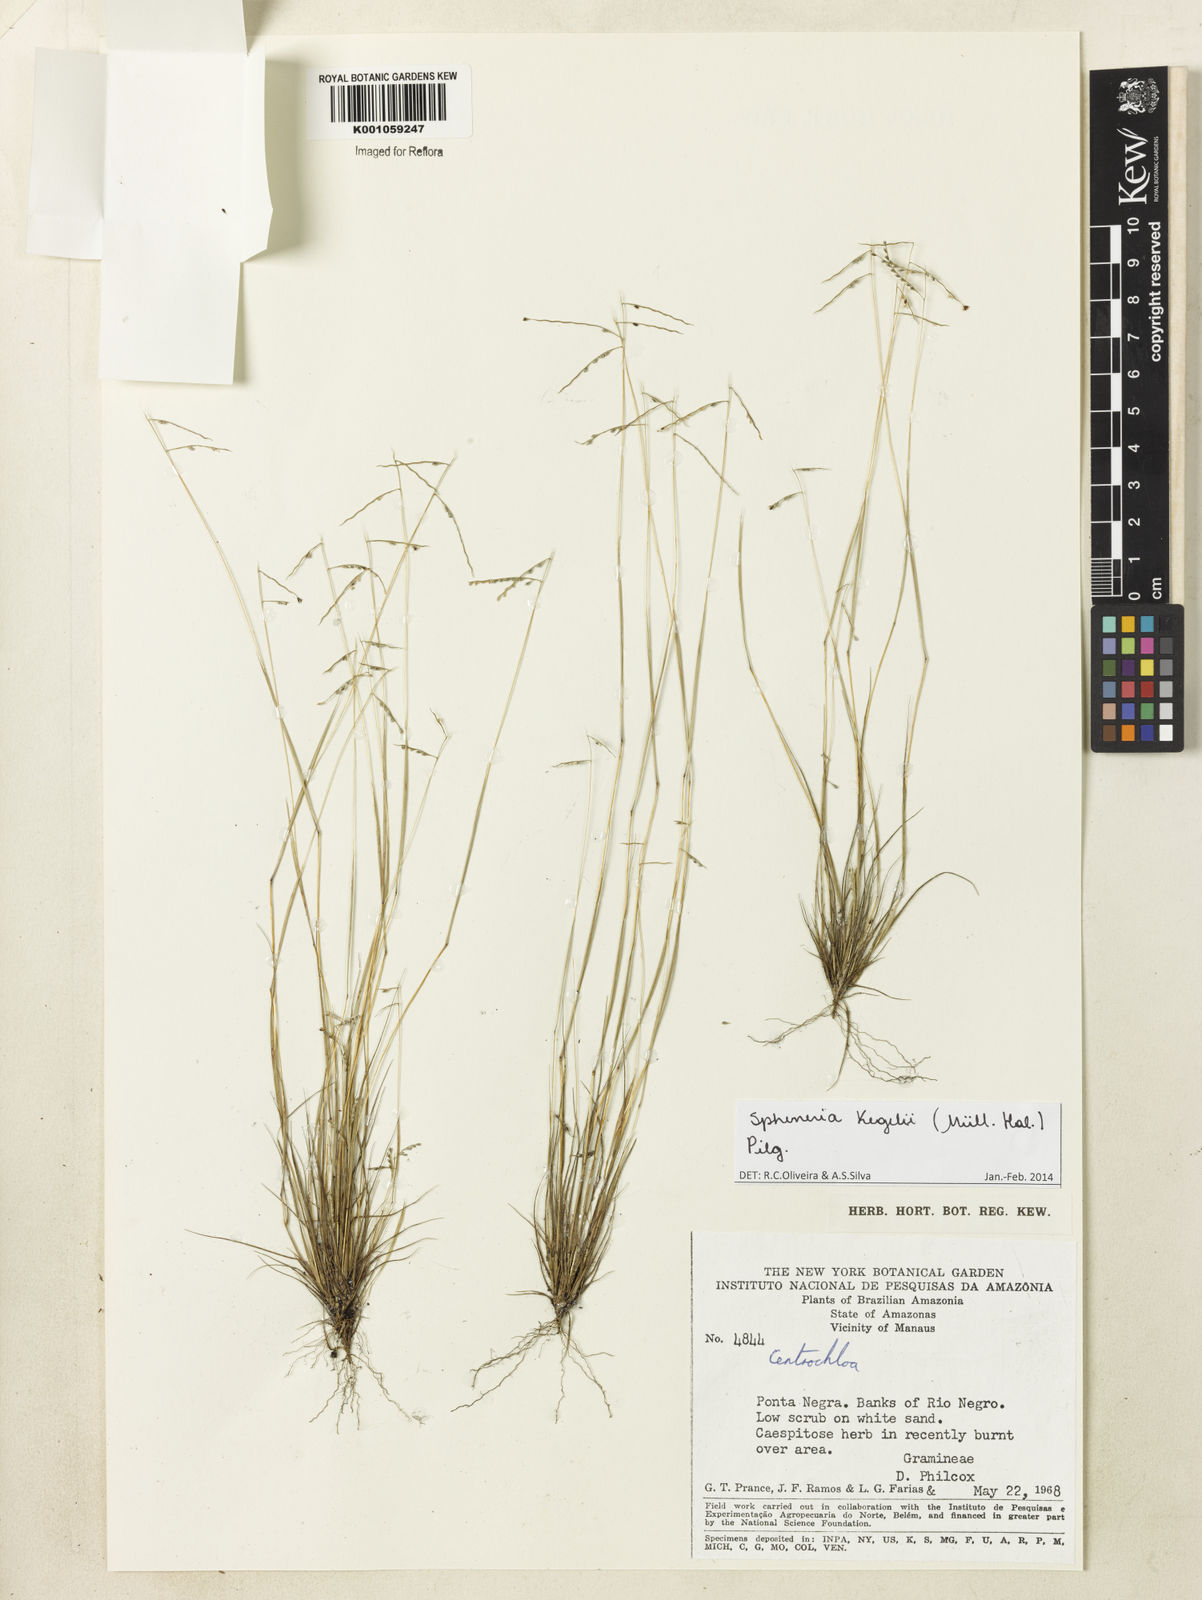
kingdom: Plantae
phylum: Tracheophyta
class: Liliopsida
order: Poales
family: Poaceae
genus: Spheneria
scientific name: Spheneria
